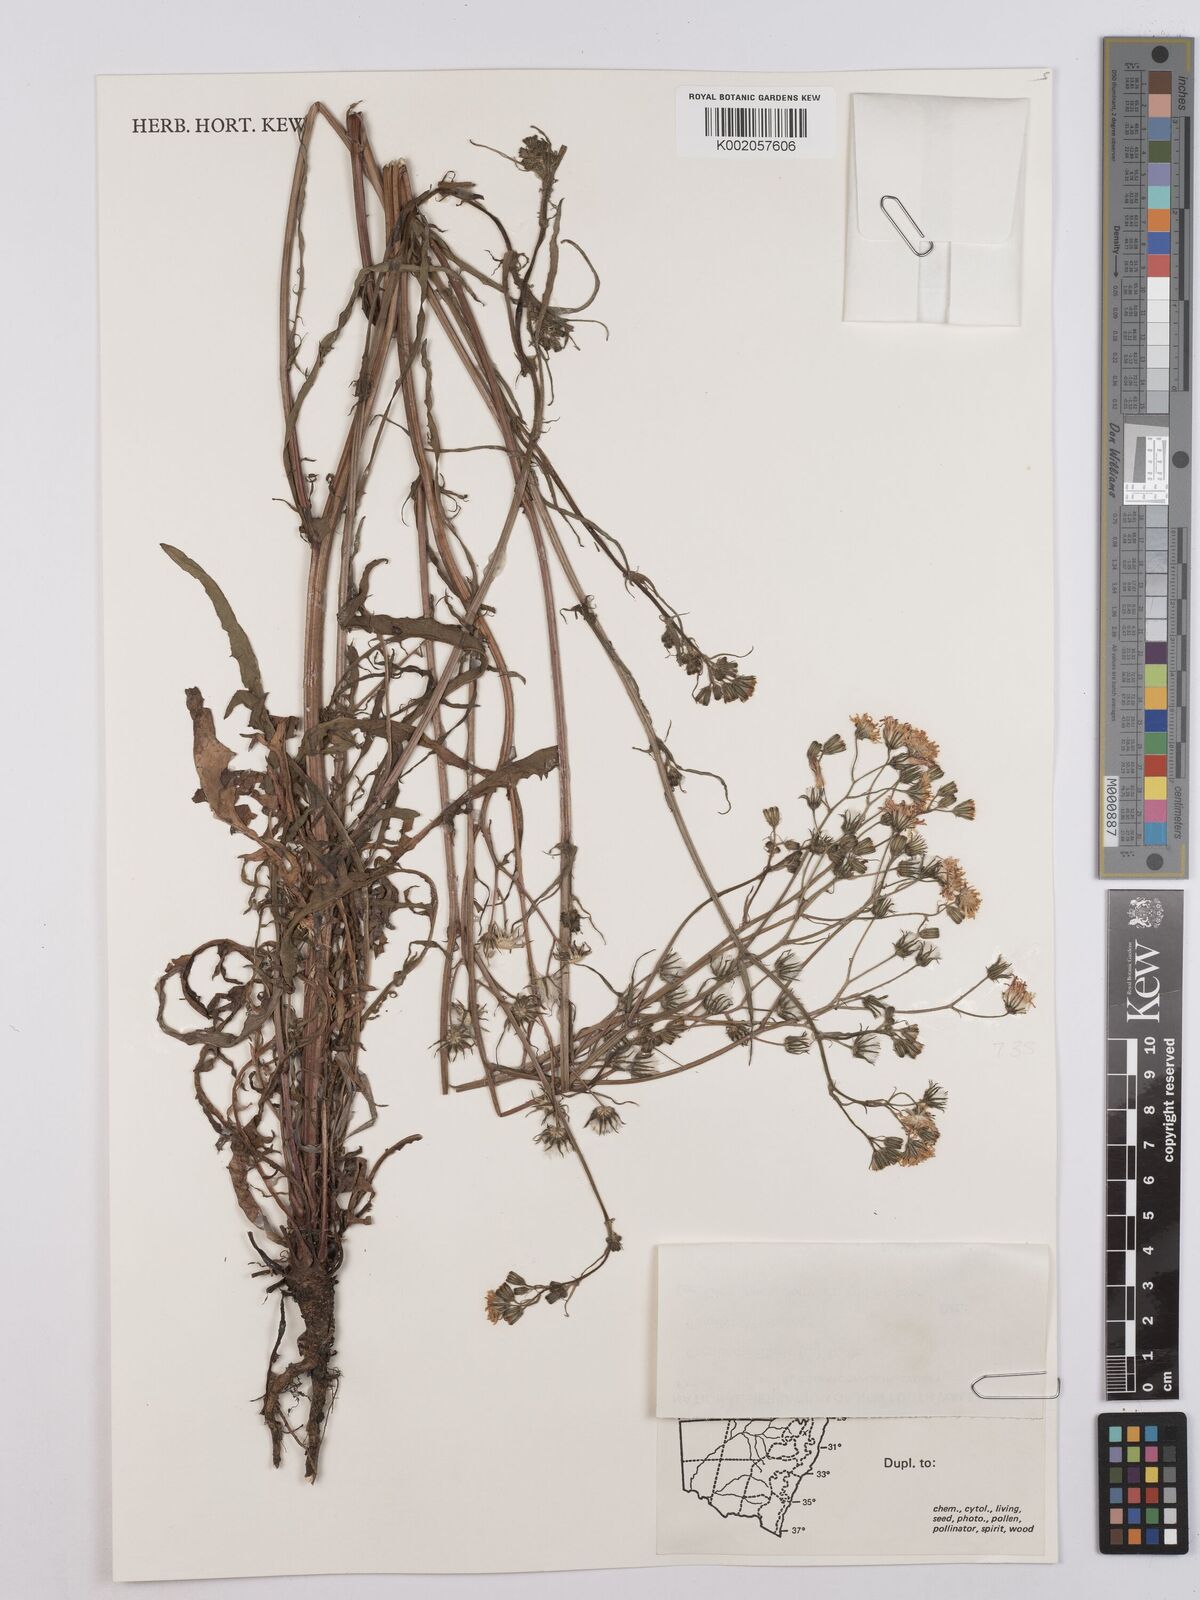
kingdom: Plantae
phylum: Tracheophyta
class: Magnoliopsida
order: Asterales
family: Asteraceae
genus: Crepis
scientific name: Crepis setosa
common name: Bristly hawk's-beard
